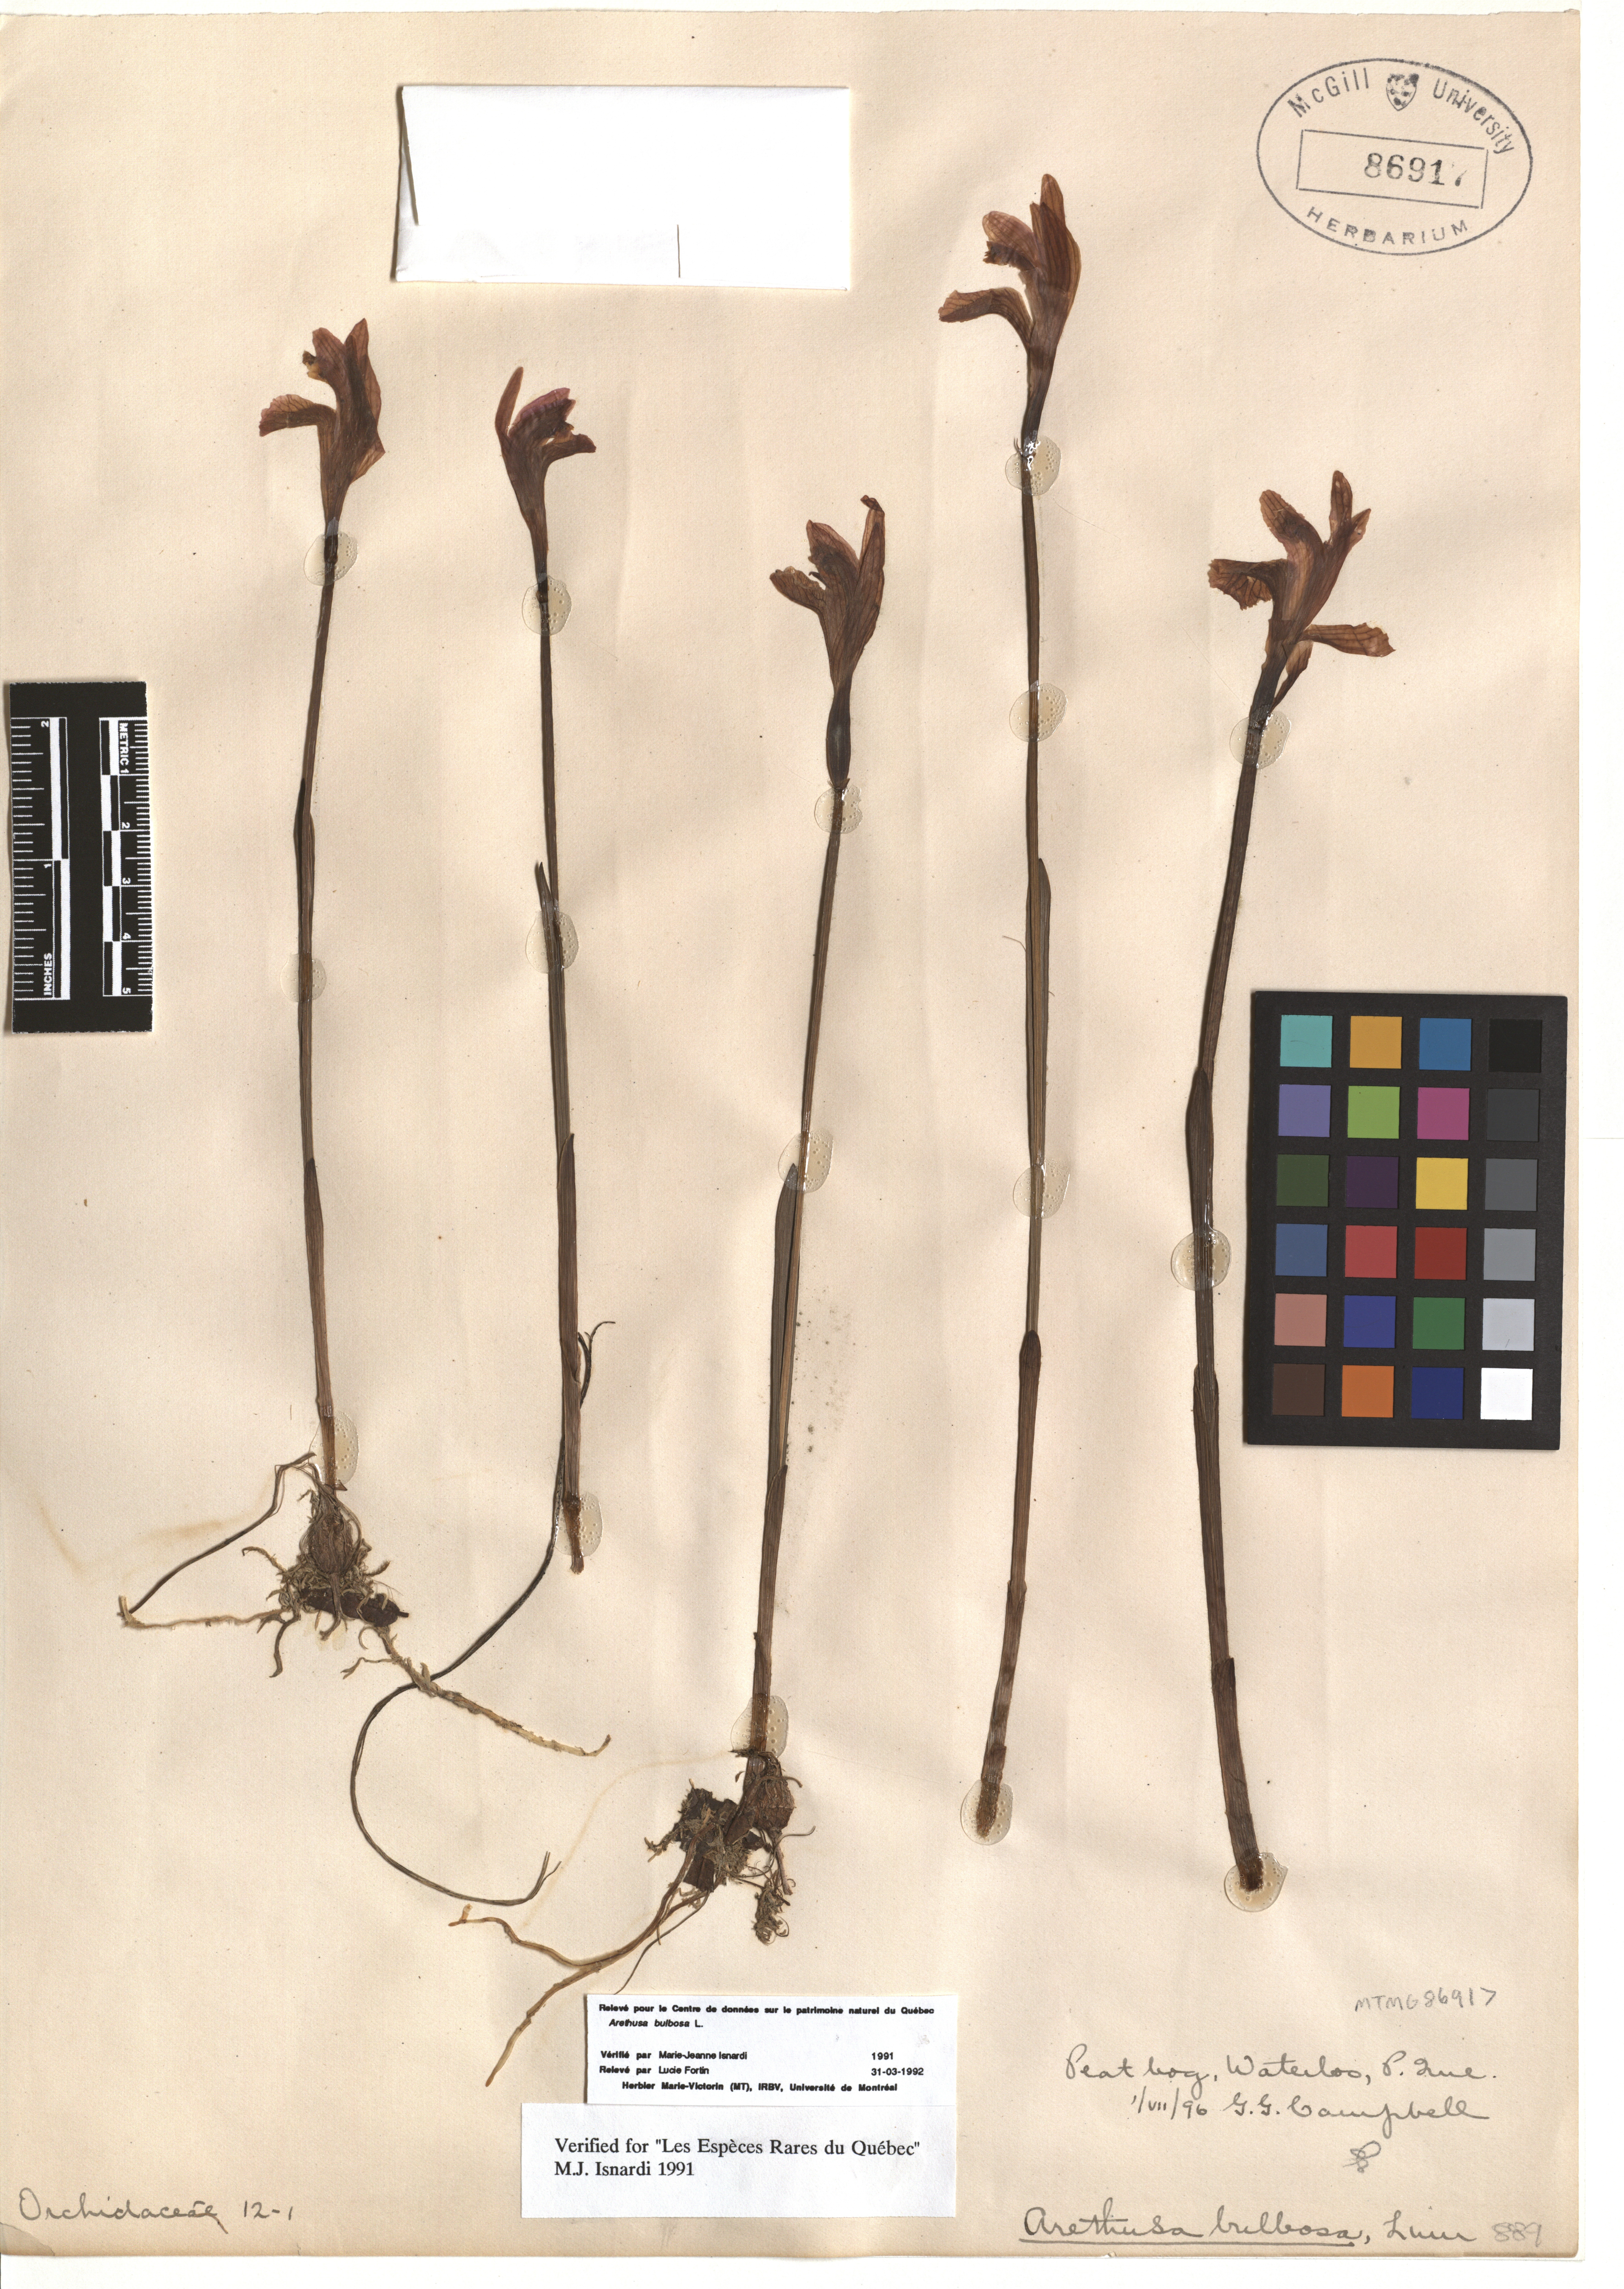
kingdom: Plantae
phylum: Tracheophyta
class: Liliopsida
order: Asparagales
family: Orchidaceae
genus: Arethusa
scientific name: Arethusa bulbosa
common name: Arethusa
